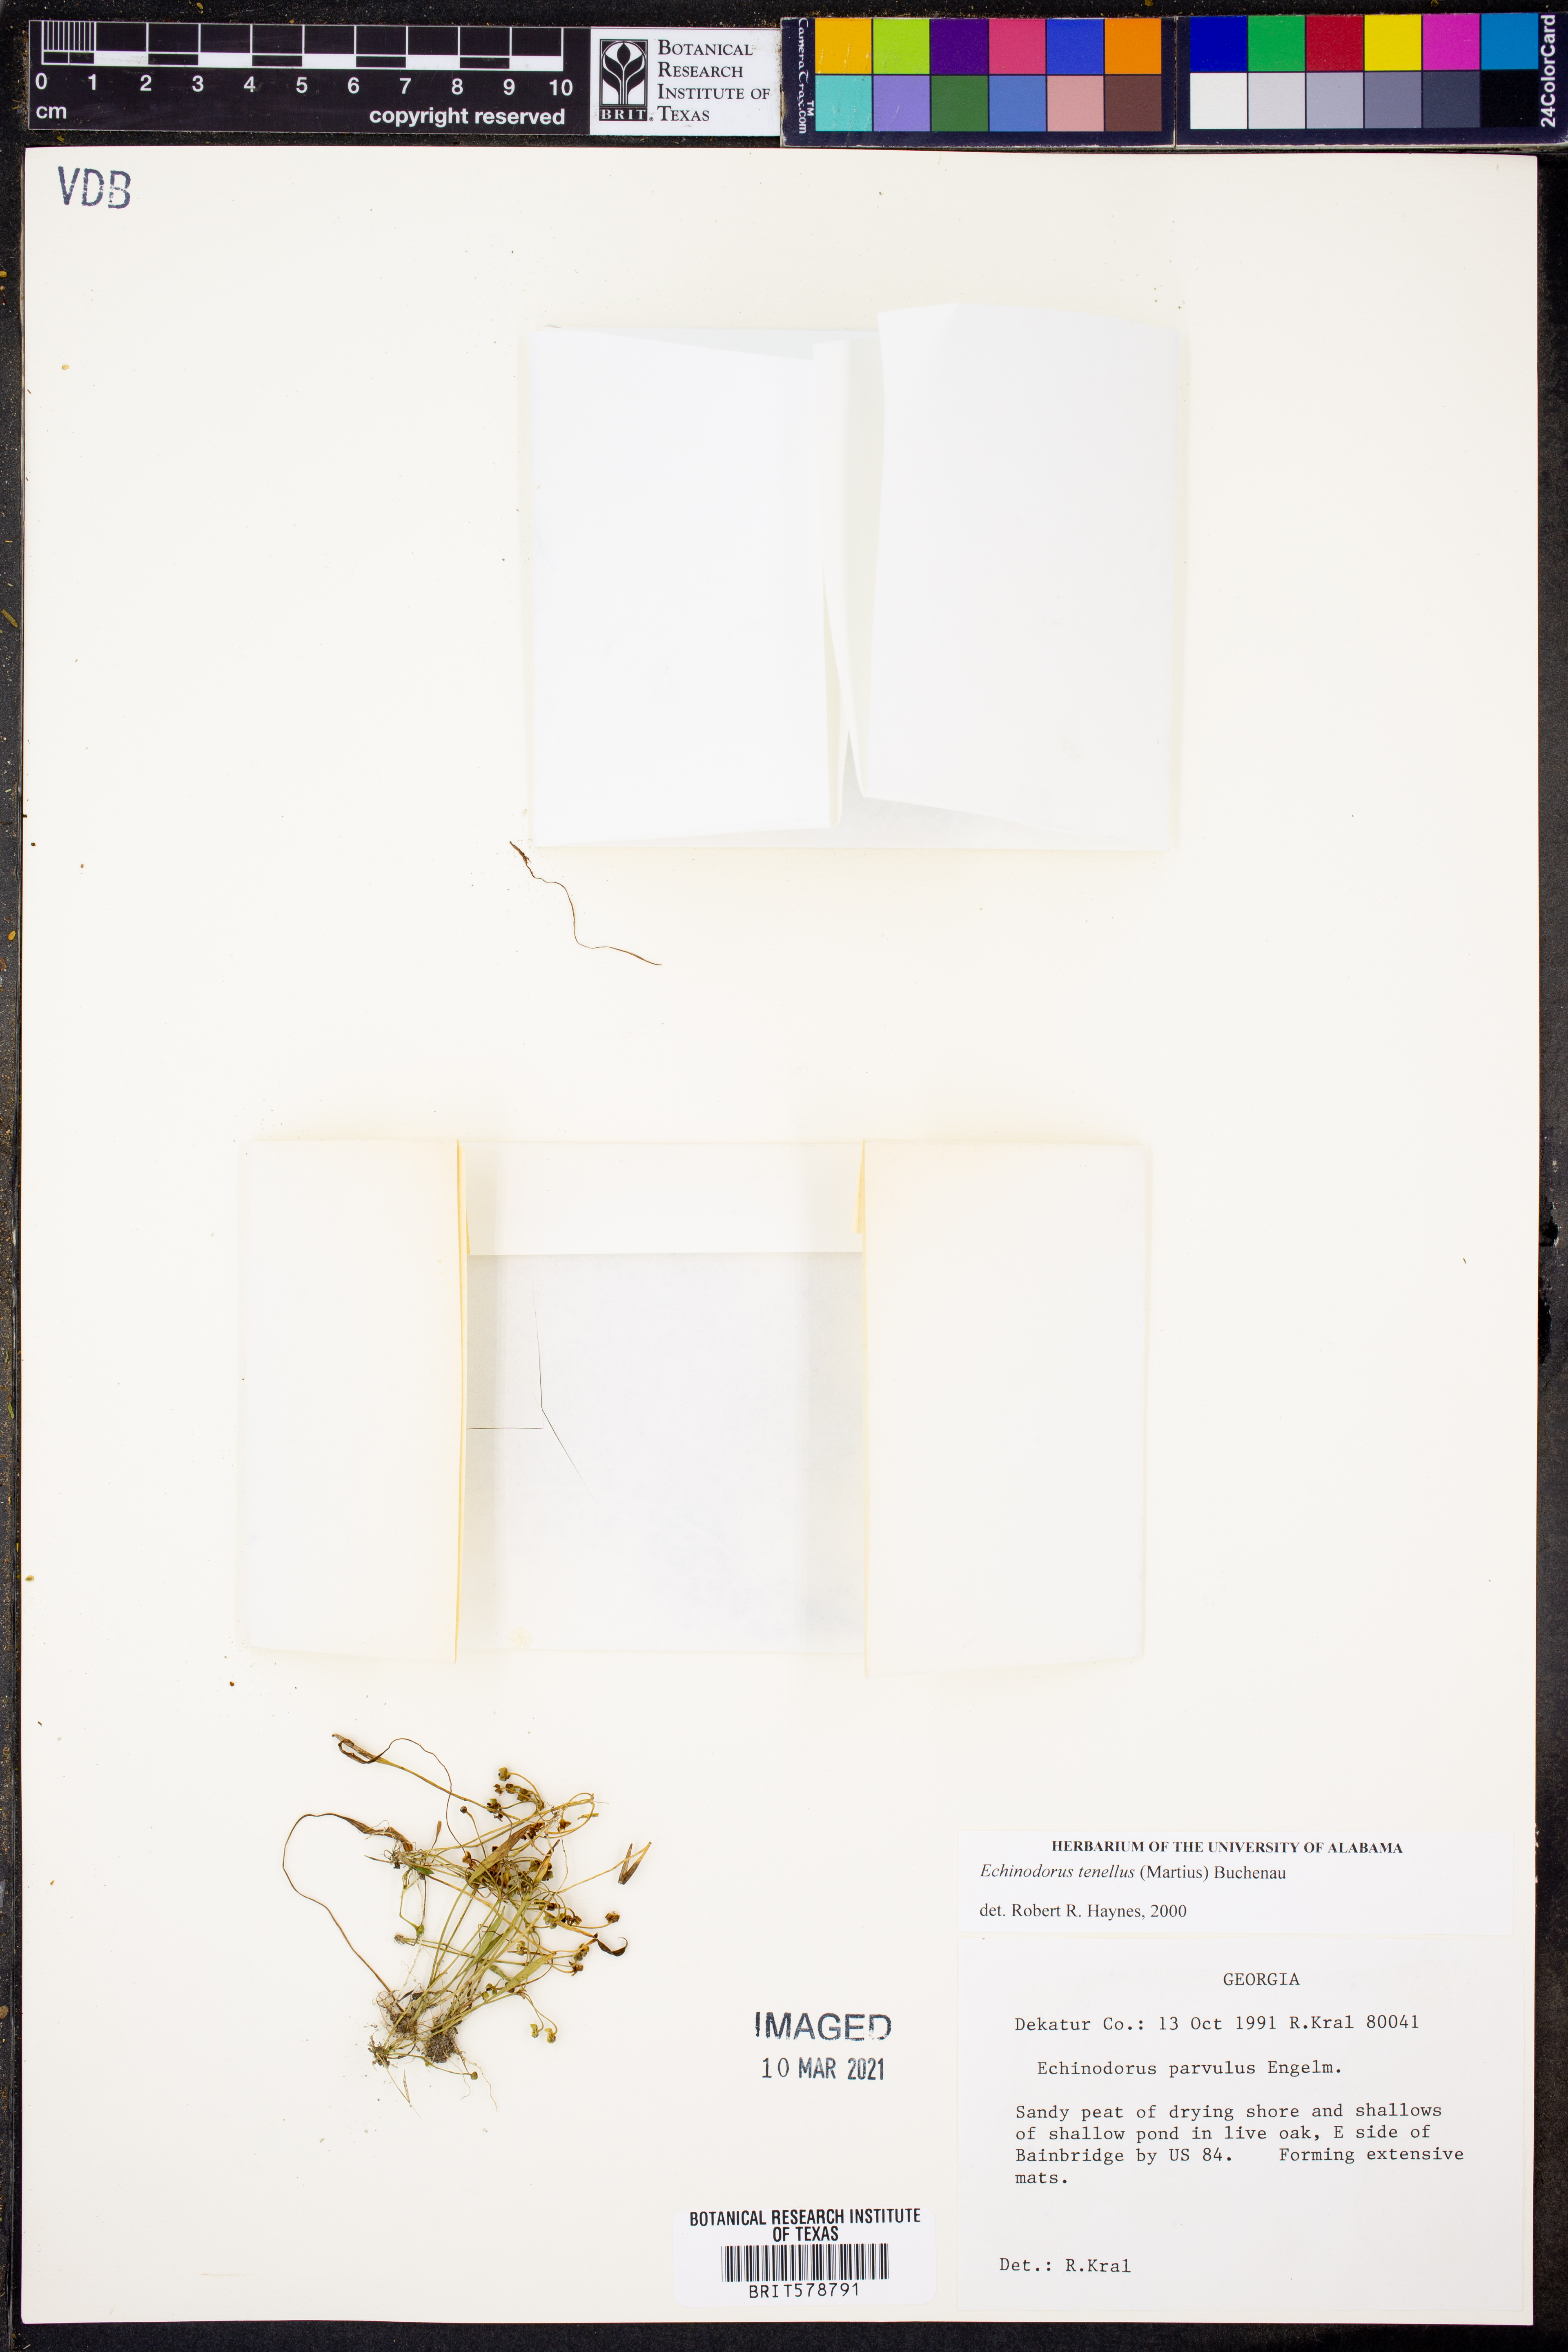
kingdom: Plantae
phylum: Tracheophyta
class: Liliopsida
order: Alismatales
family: Alismataceae
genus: Helanthium
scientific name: Helanthium tenellum
